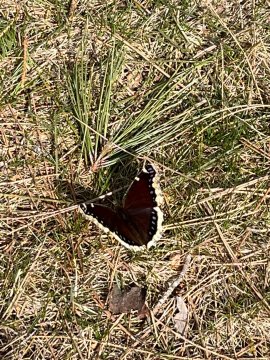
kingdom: Animalia
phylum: Arthropoda
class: Insecta
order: Lepidoptera
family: Nymphalidae
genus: Nymphalis
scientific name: Nymphalis antiopa
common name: Mourning Cloak
